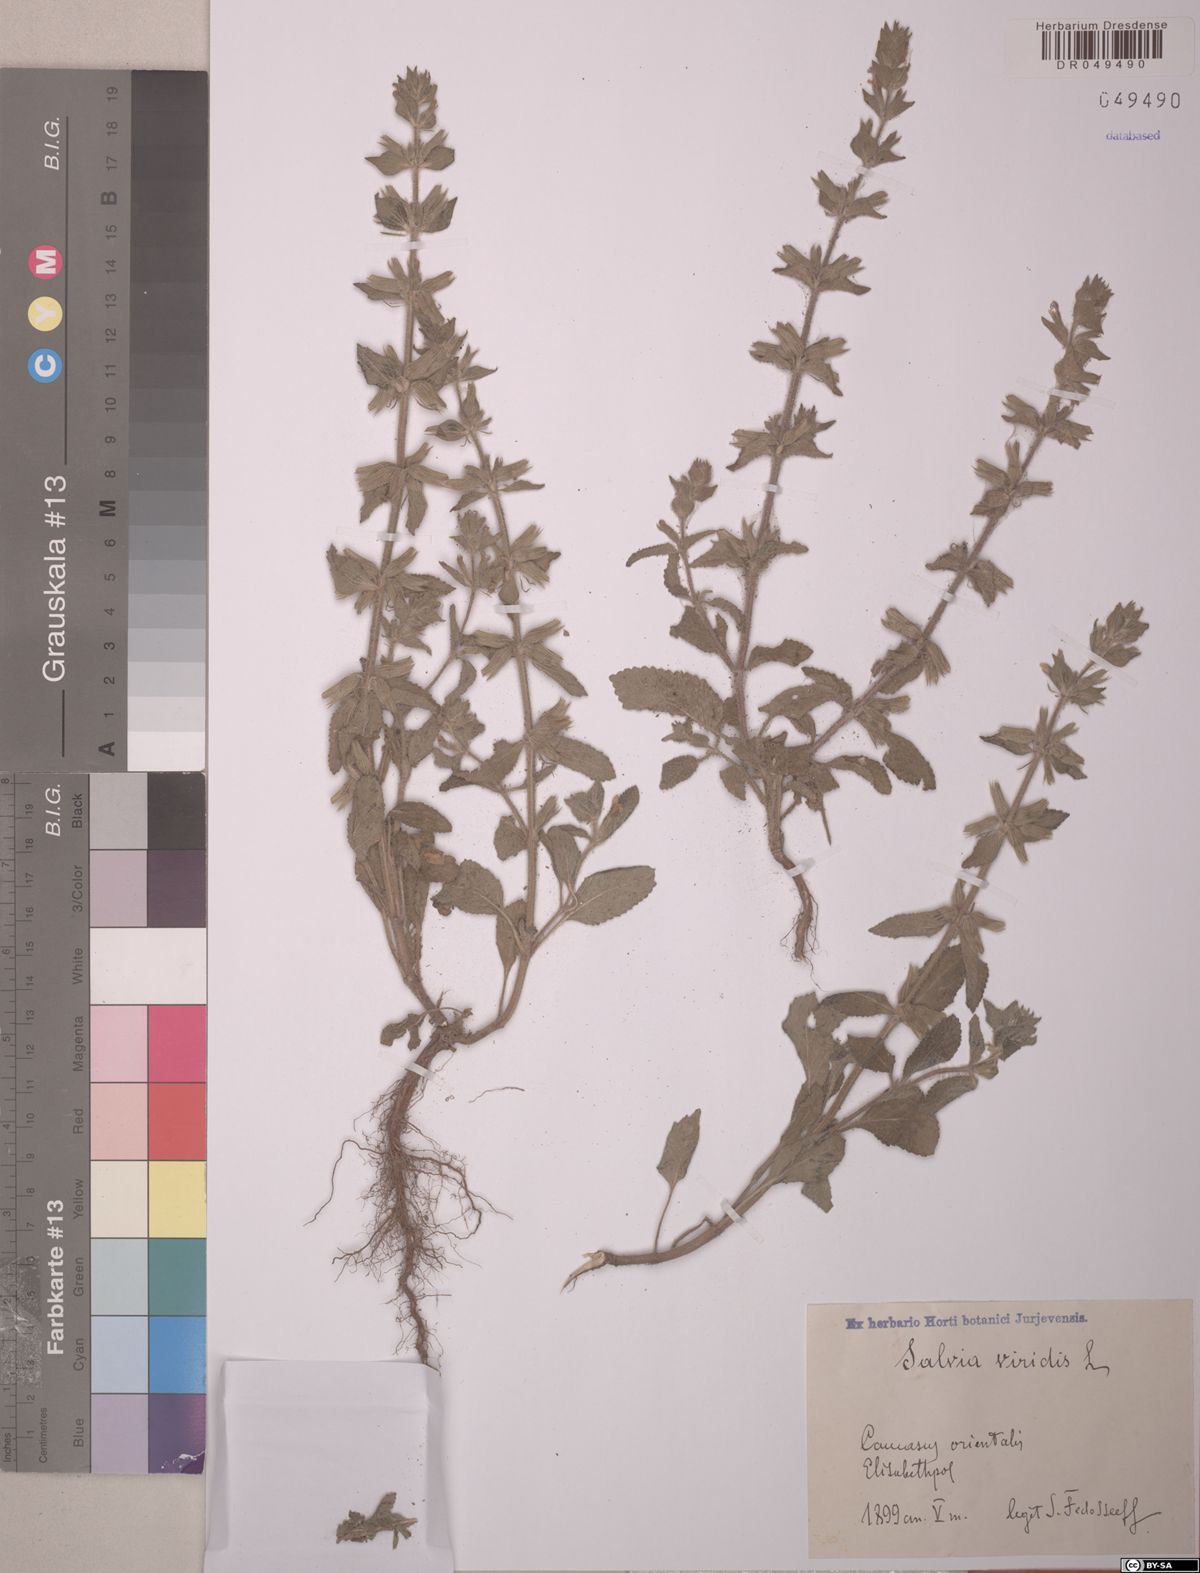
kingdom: Plantae
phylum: Tracheophyta
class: Magnoliopsida
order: Lamiales
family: Lamiaceae
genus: Salvia
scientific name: Salvia viridis
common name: Annual clary
